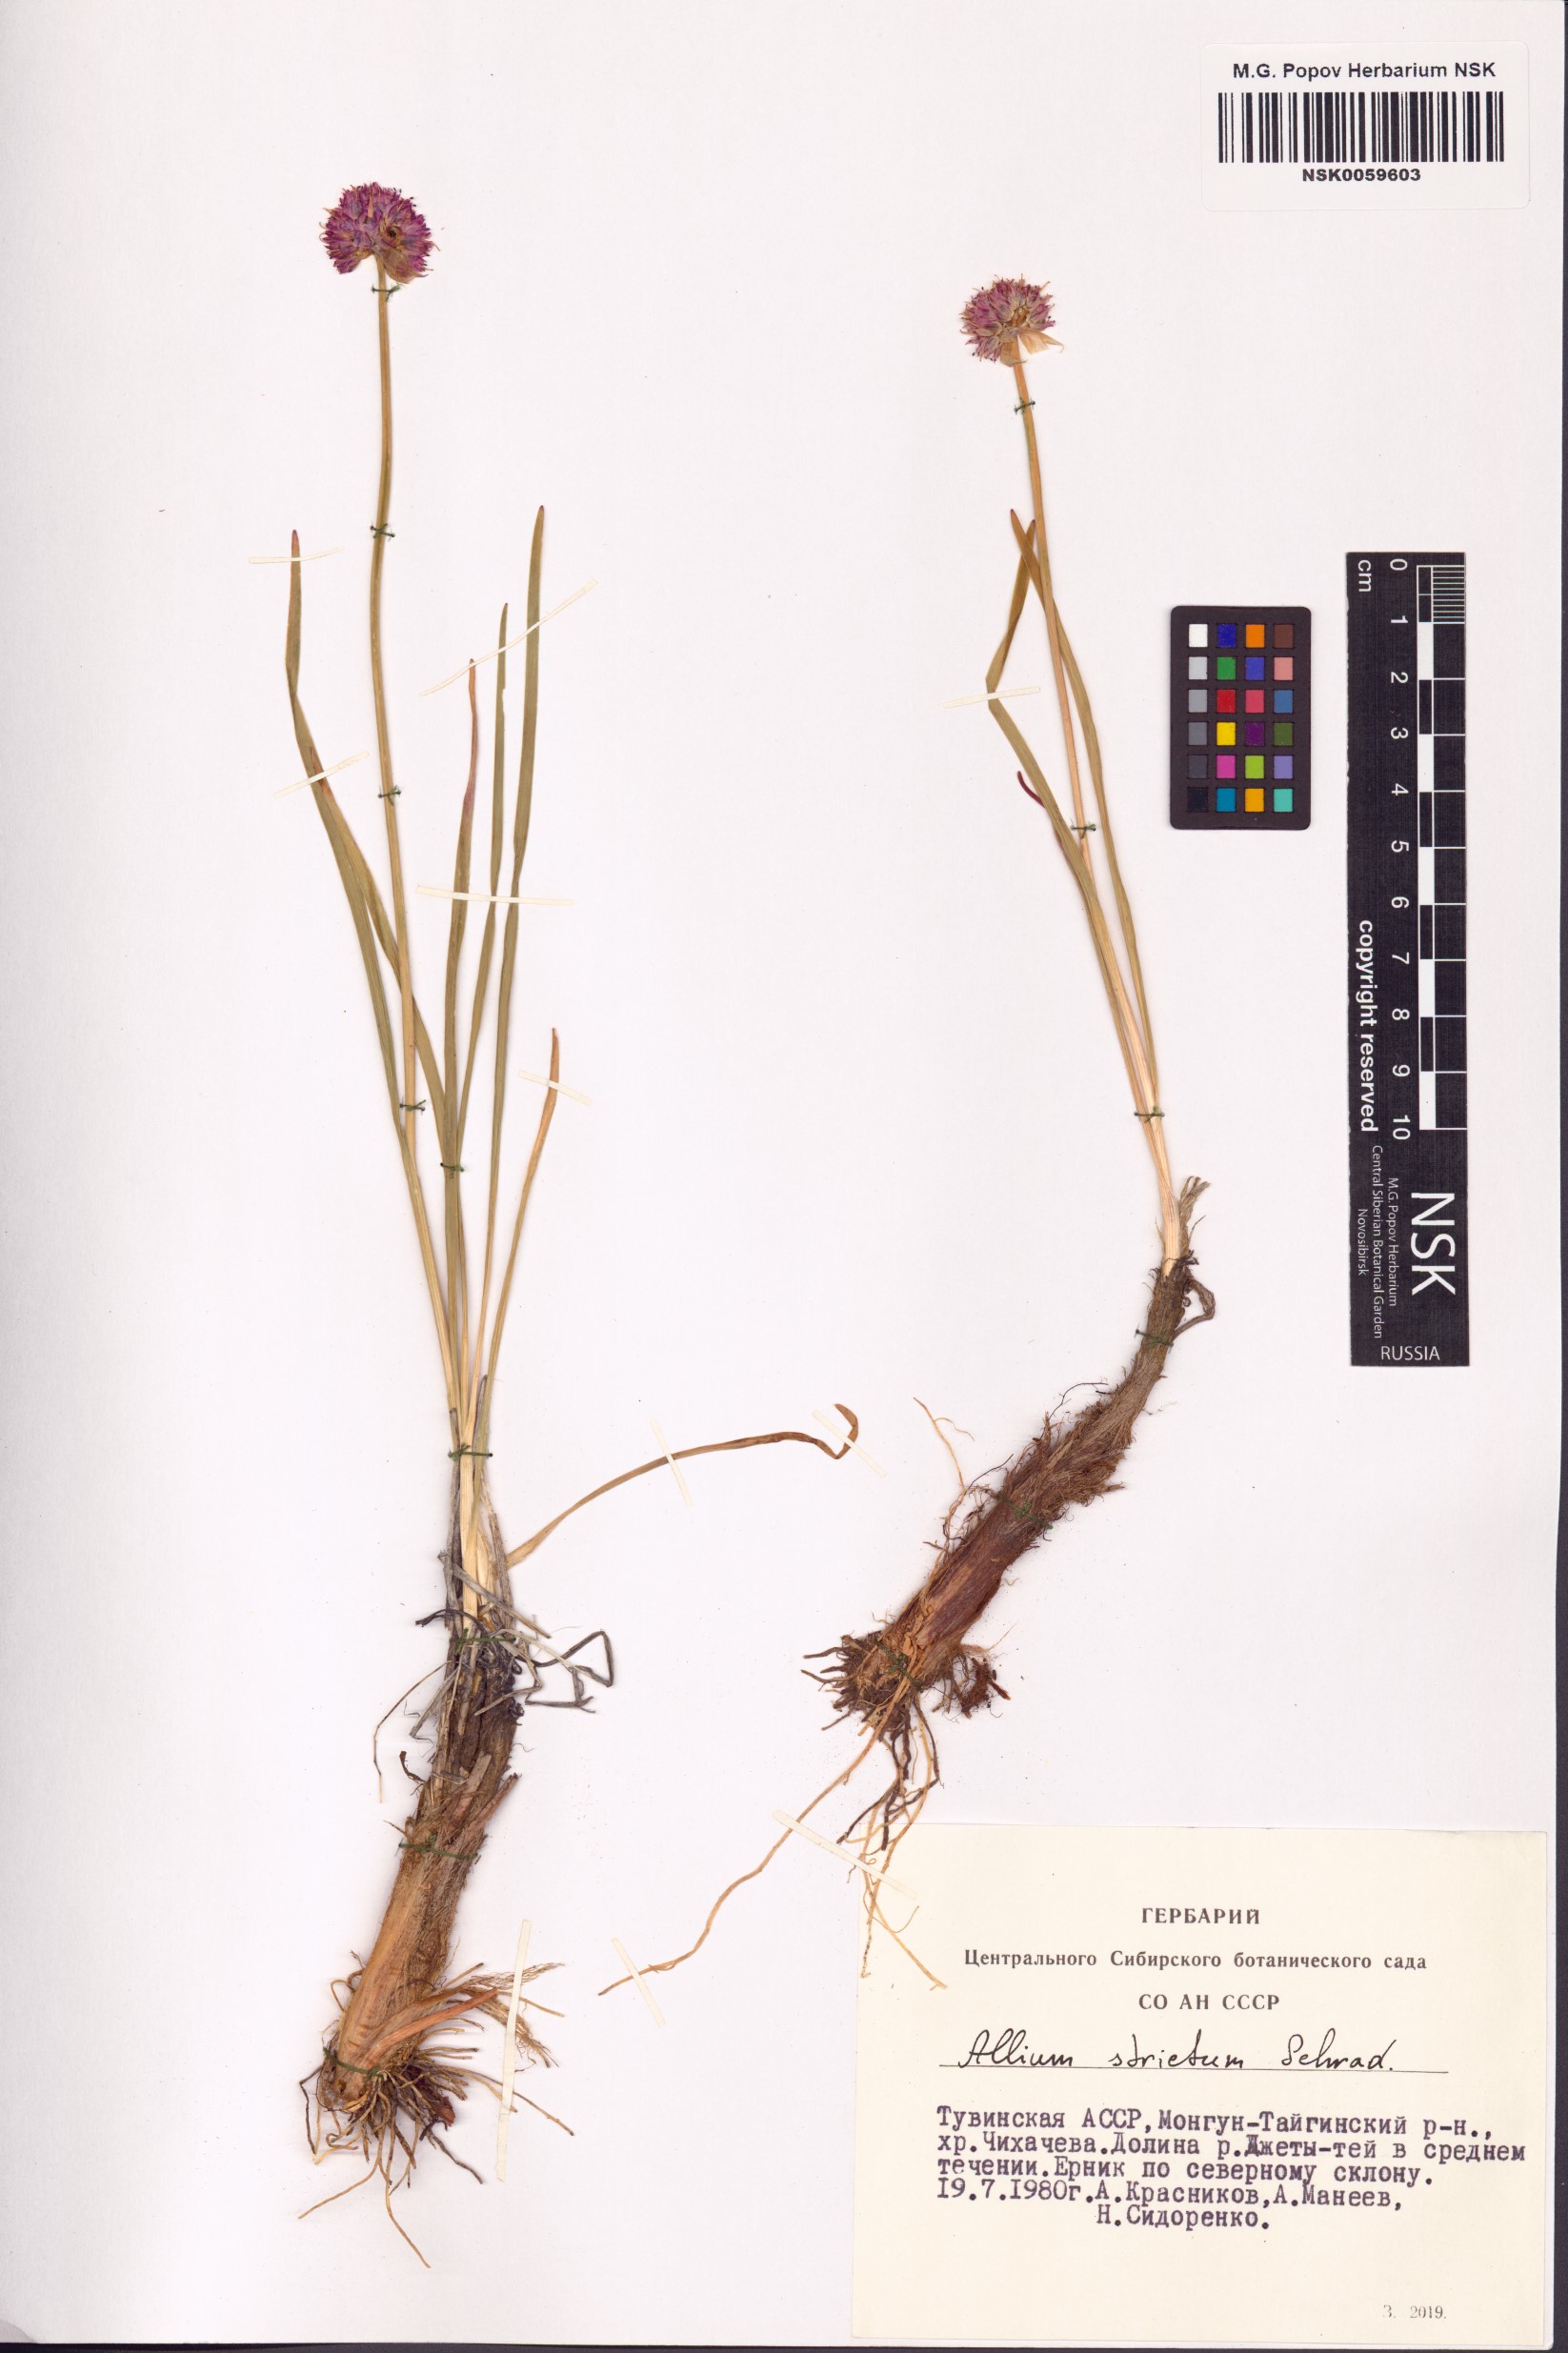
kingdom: Plantae
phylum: Tracheophyta
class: Liliopsida
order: Asparagales
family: Amaryllidaceae
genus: Allium
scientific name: Allium strictum
